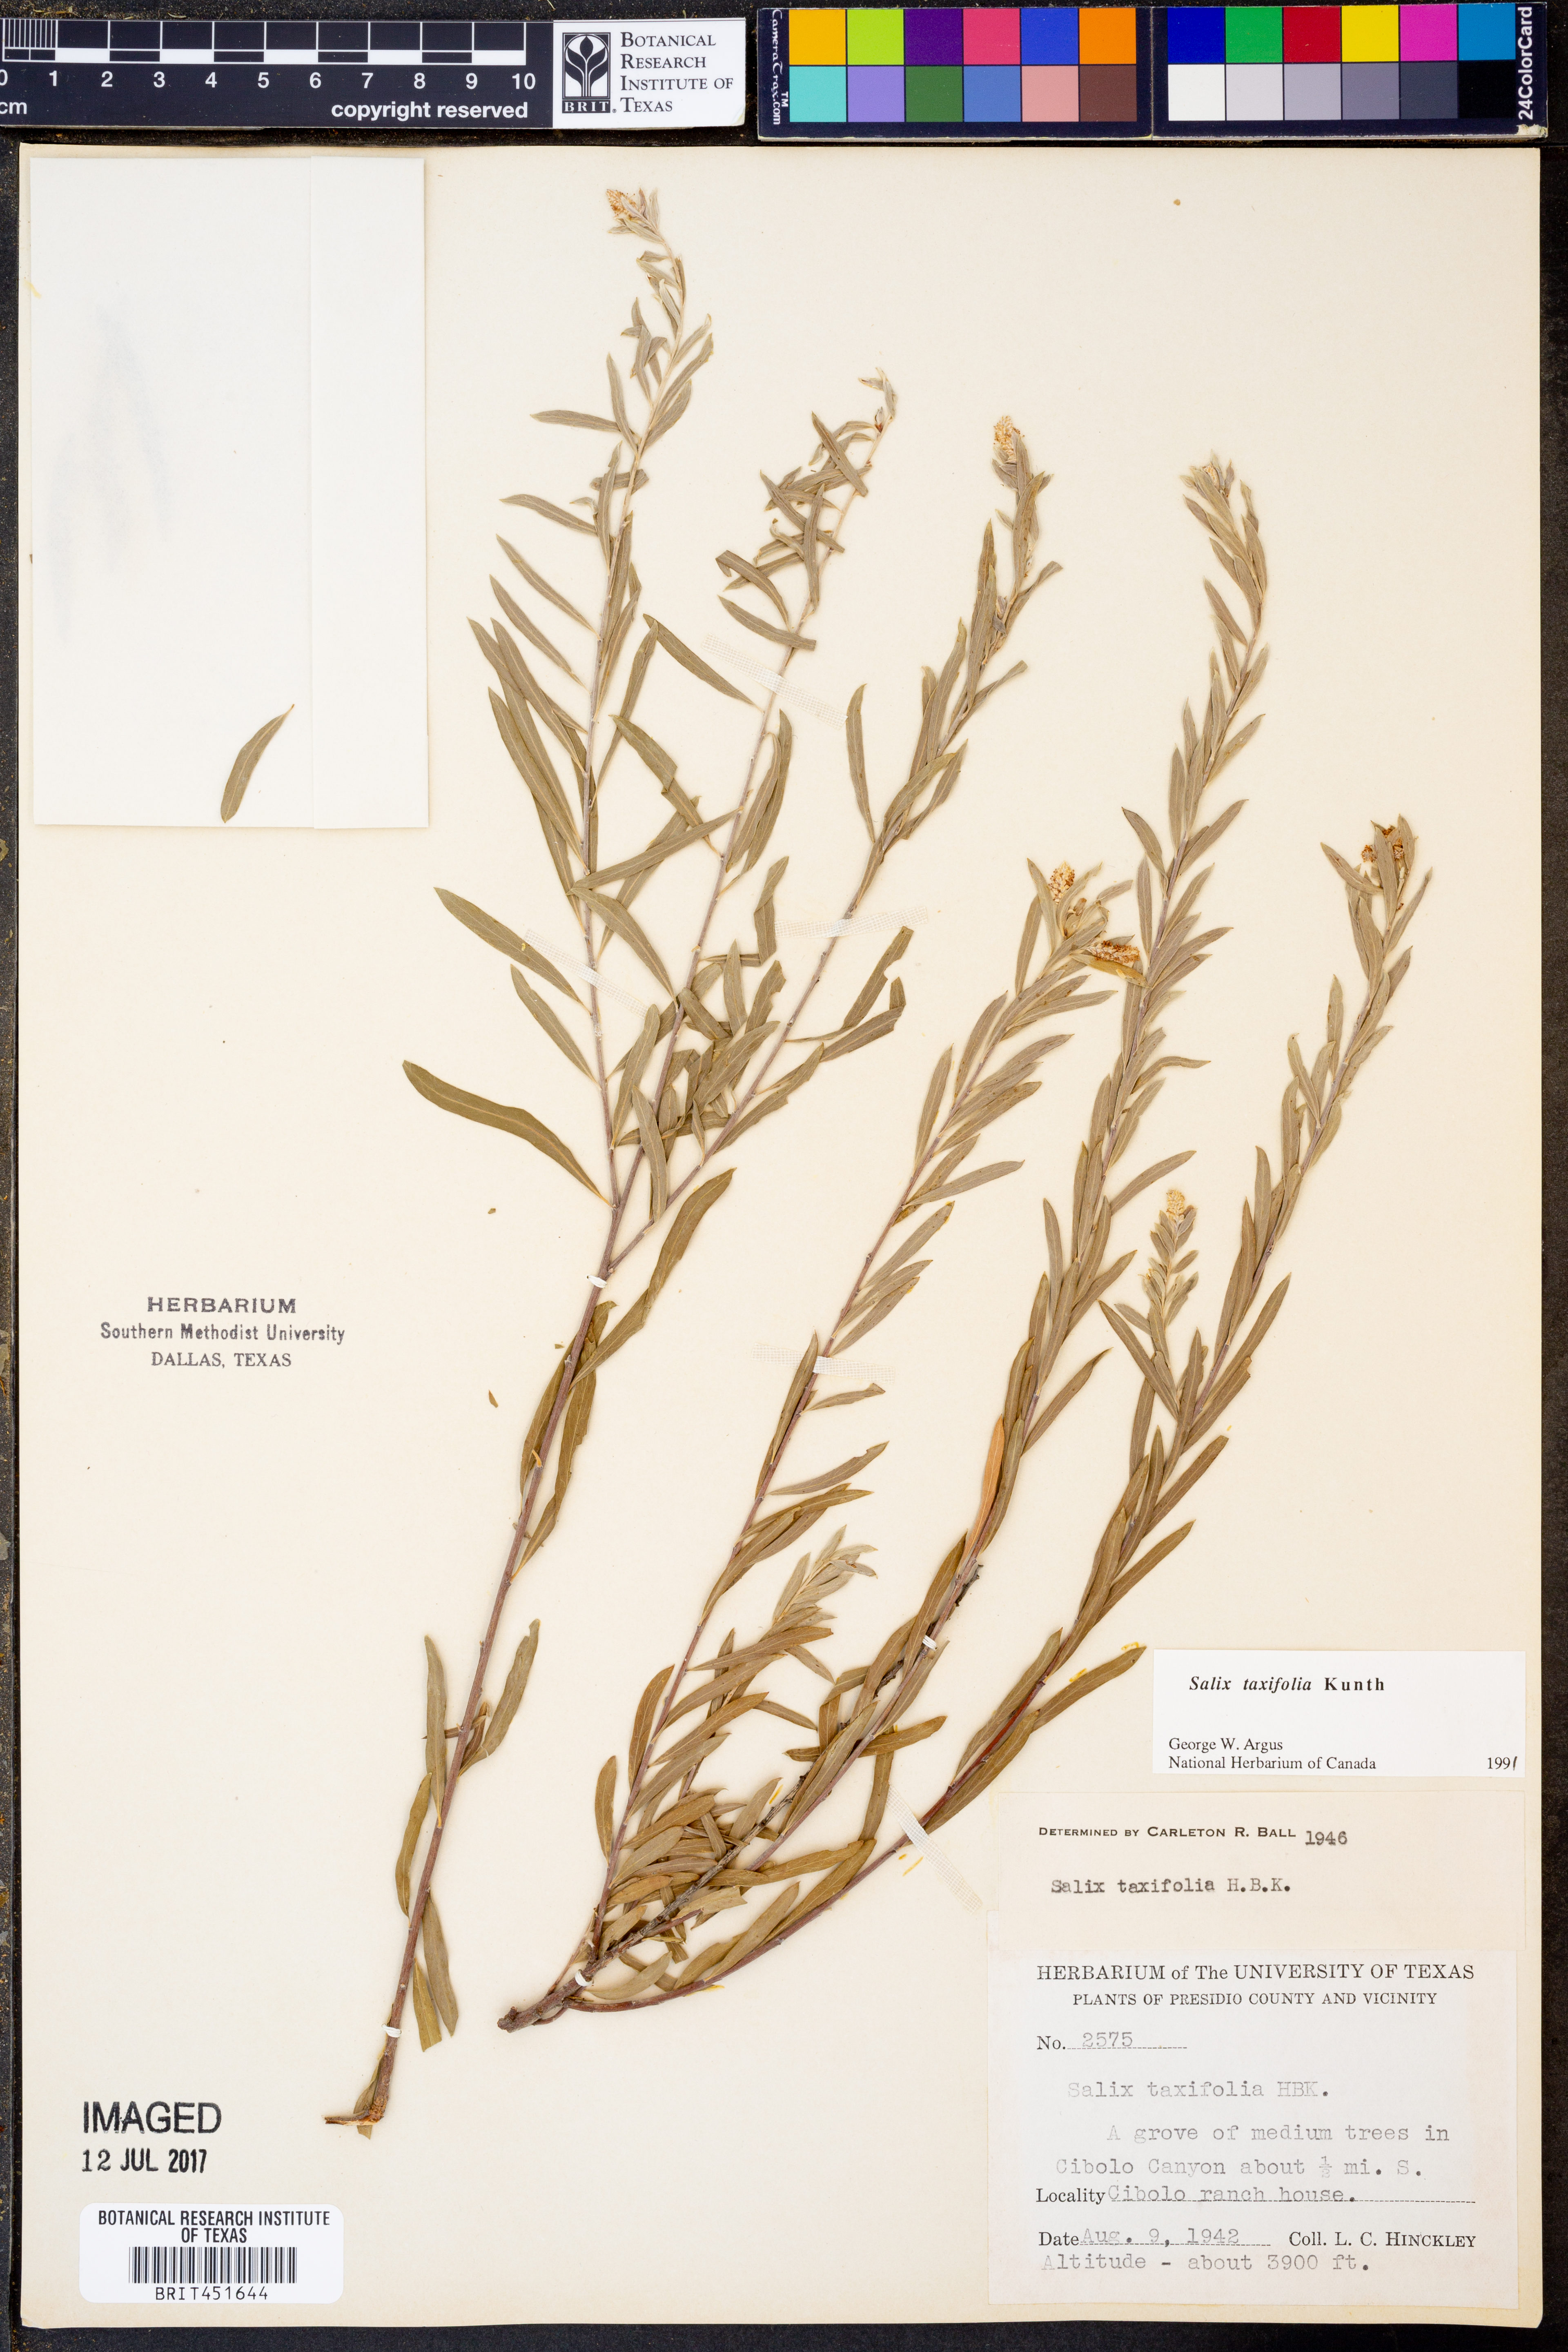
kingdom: Plantae
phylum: Tracheophyta
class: Magnoliopsida
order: Malpighiales
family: Salicaceae
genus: Salix
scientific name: Salix taxifolia
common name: Yew-leaf willow
